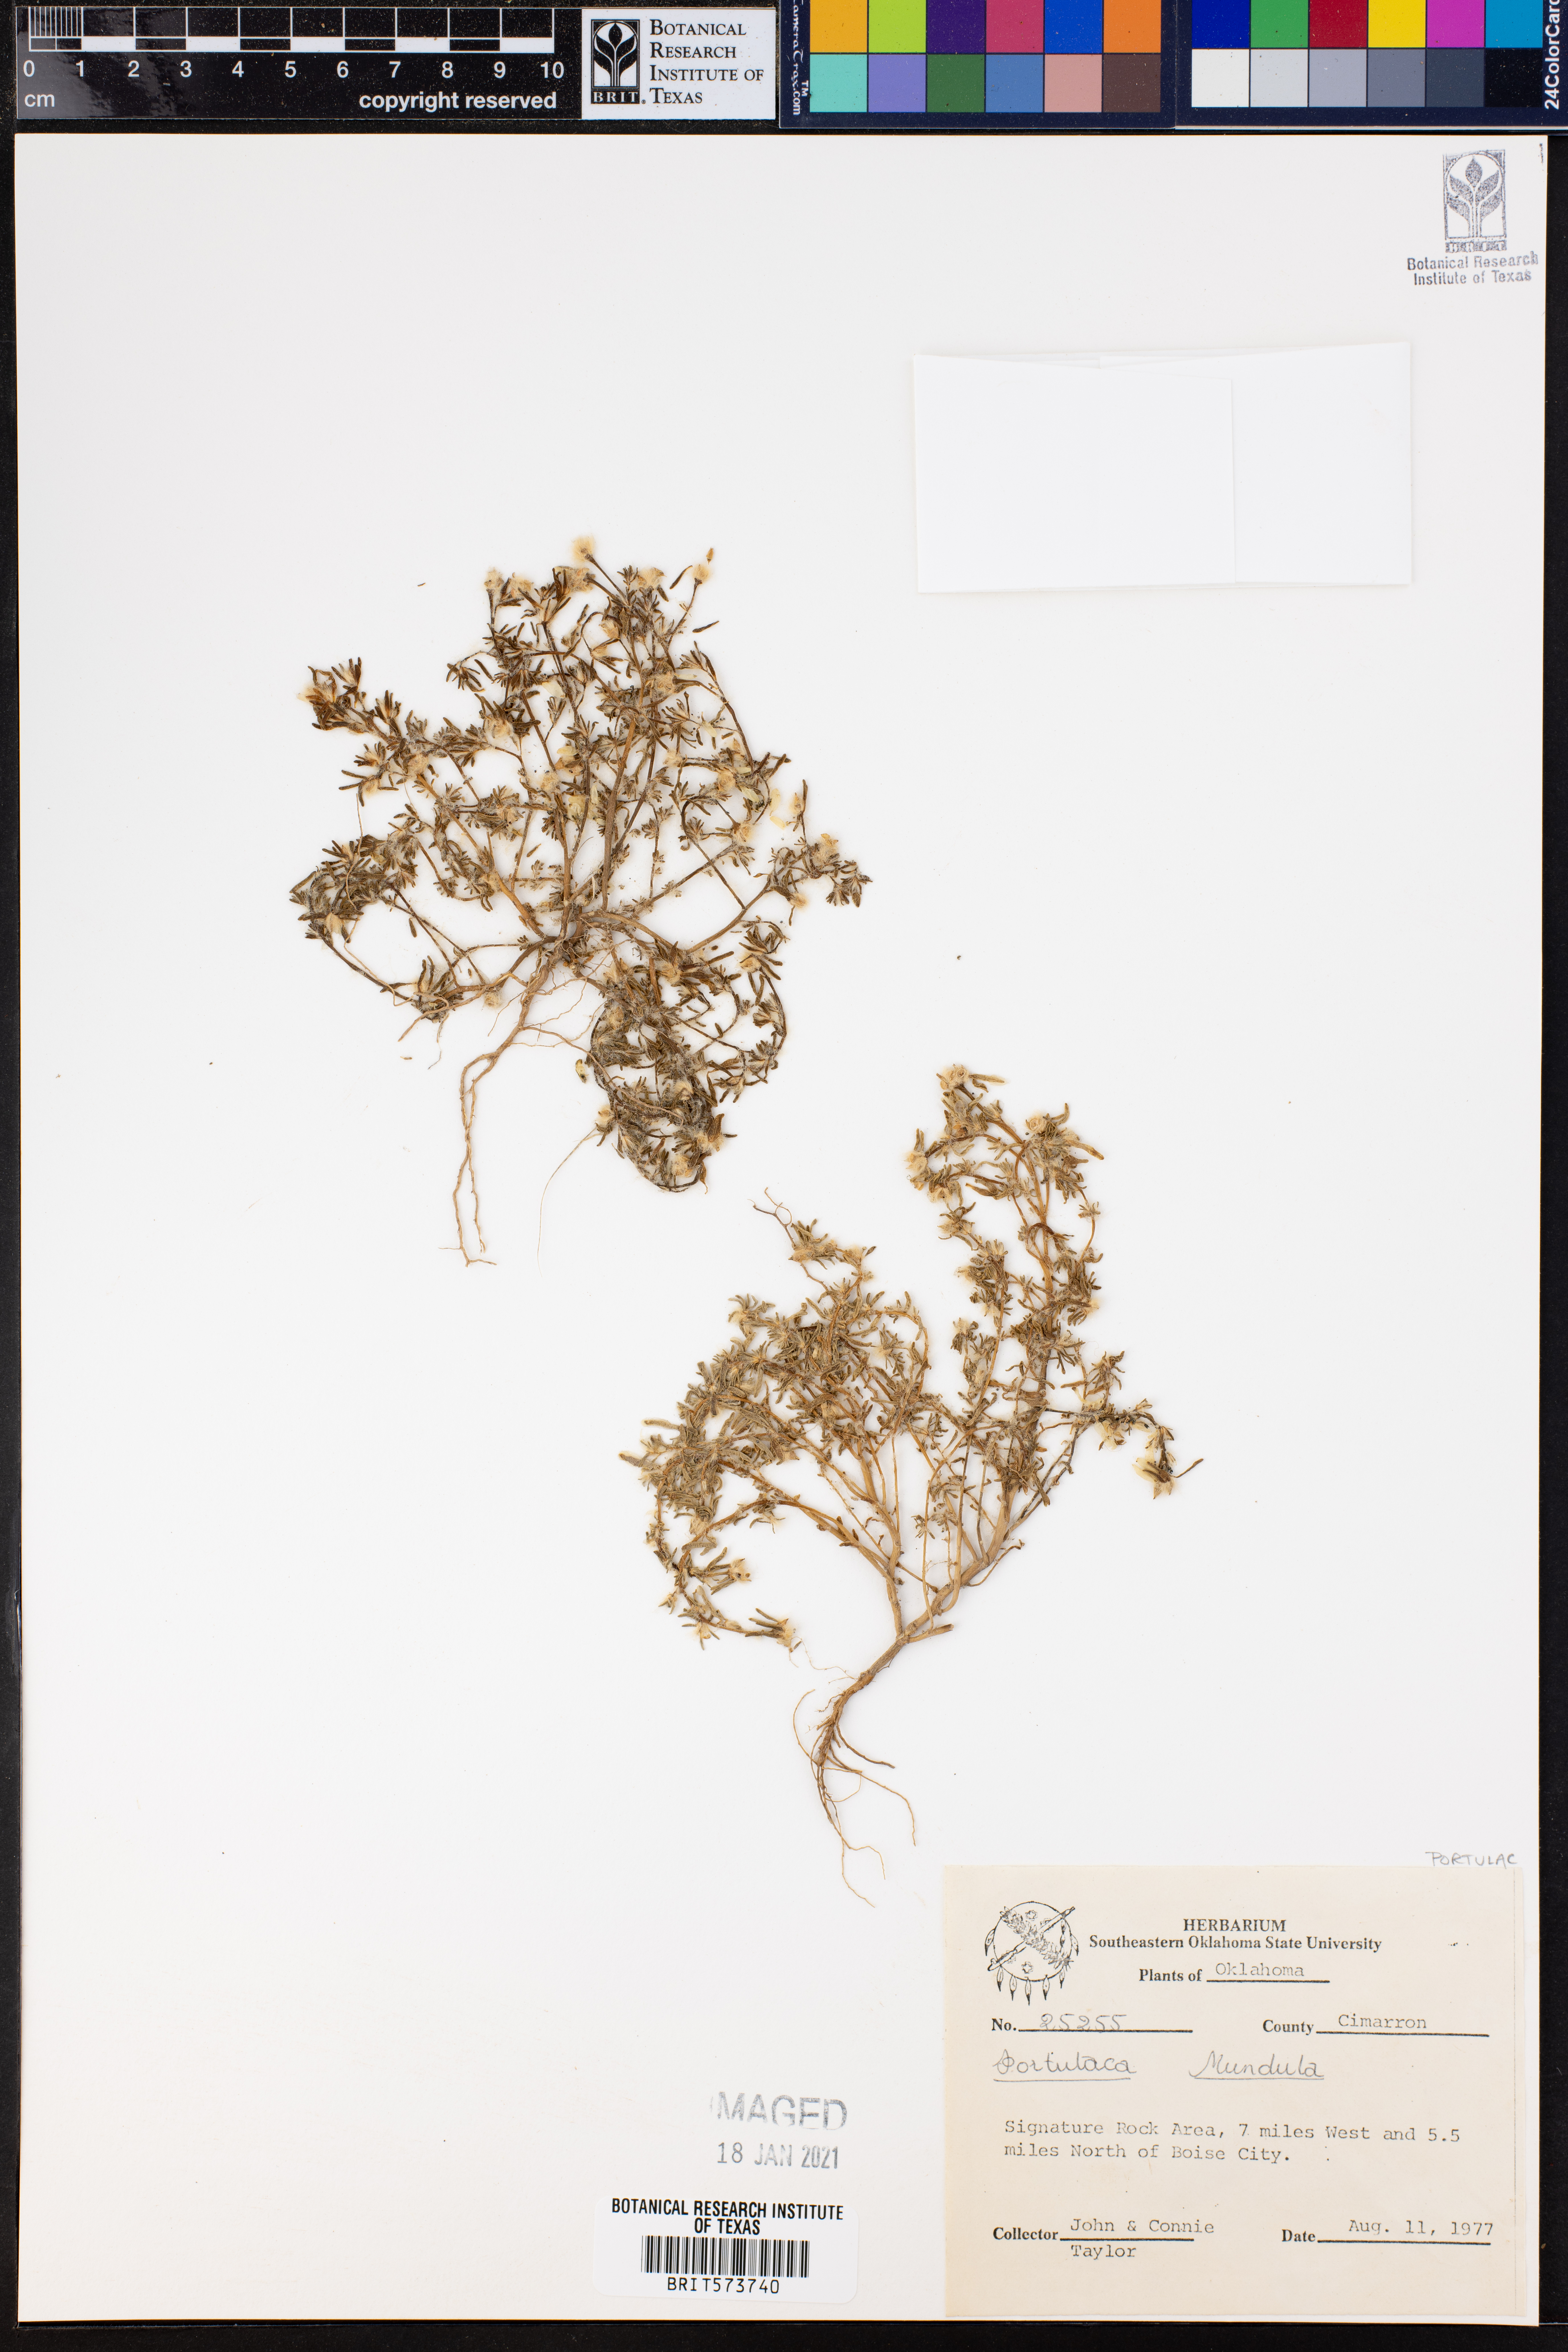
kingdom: Plantae
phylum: Tracheophyta
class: Magnoliopsida
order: Caryophyllales
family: Portulacaceae
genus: Portulaca
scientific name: Portulaca pilosa
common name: Kiss me quick
